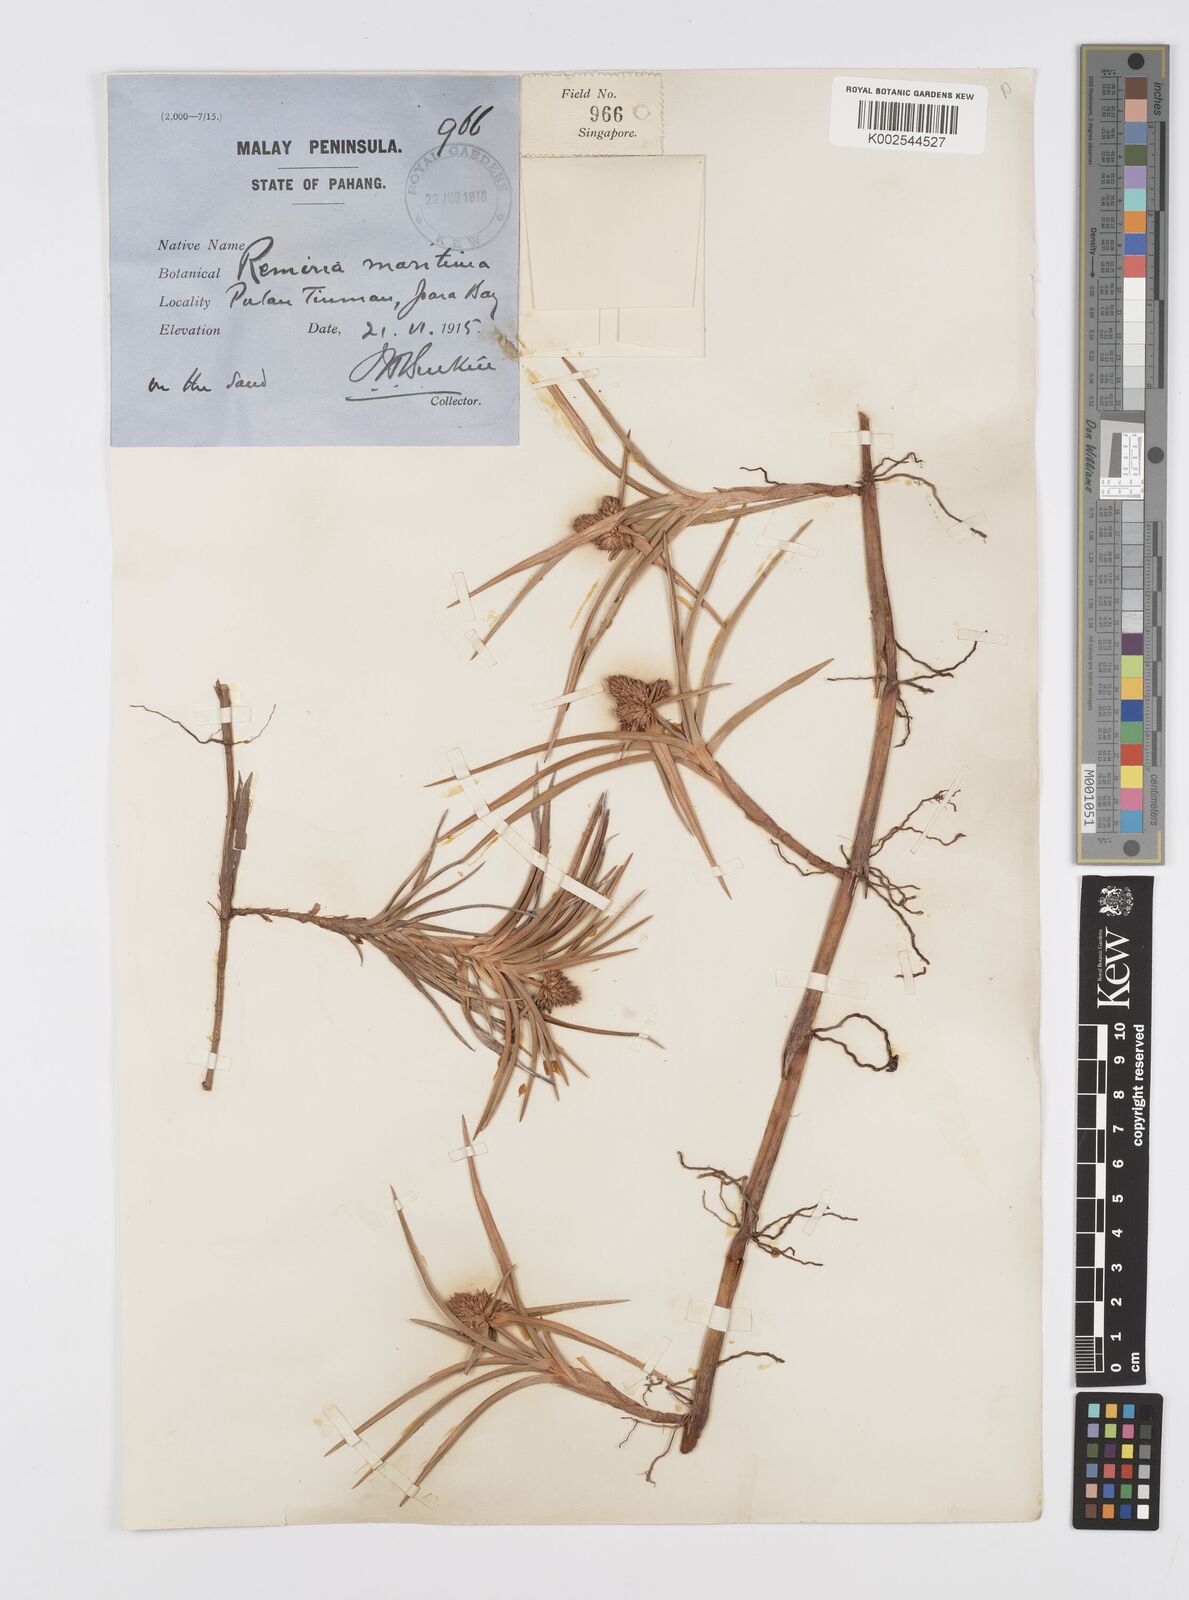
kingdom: Plantae
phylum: Tracheophyta
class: Liliopsida
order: Poales
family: Cyperaceae
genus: Cyperus
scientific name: Cyperus
